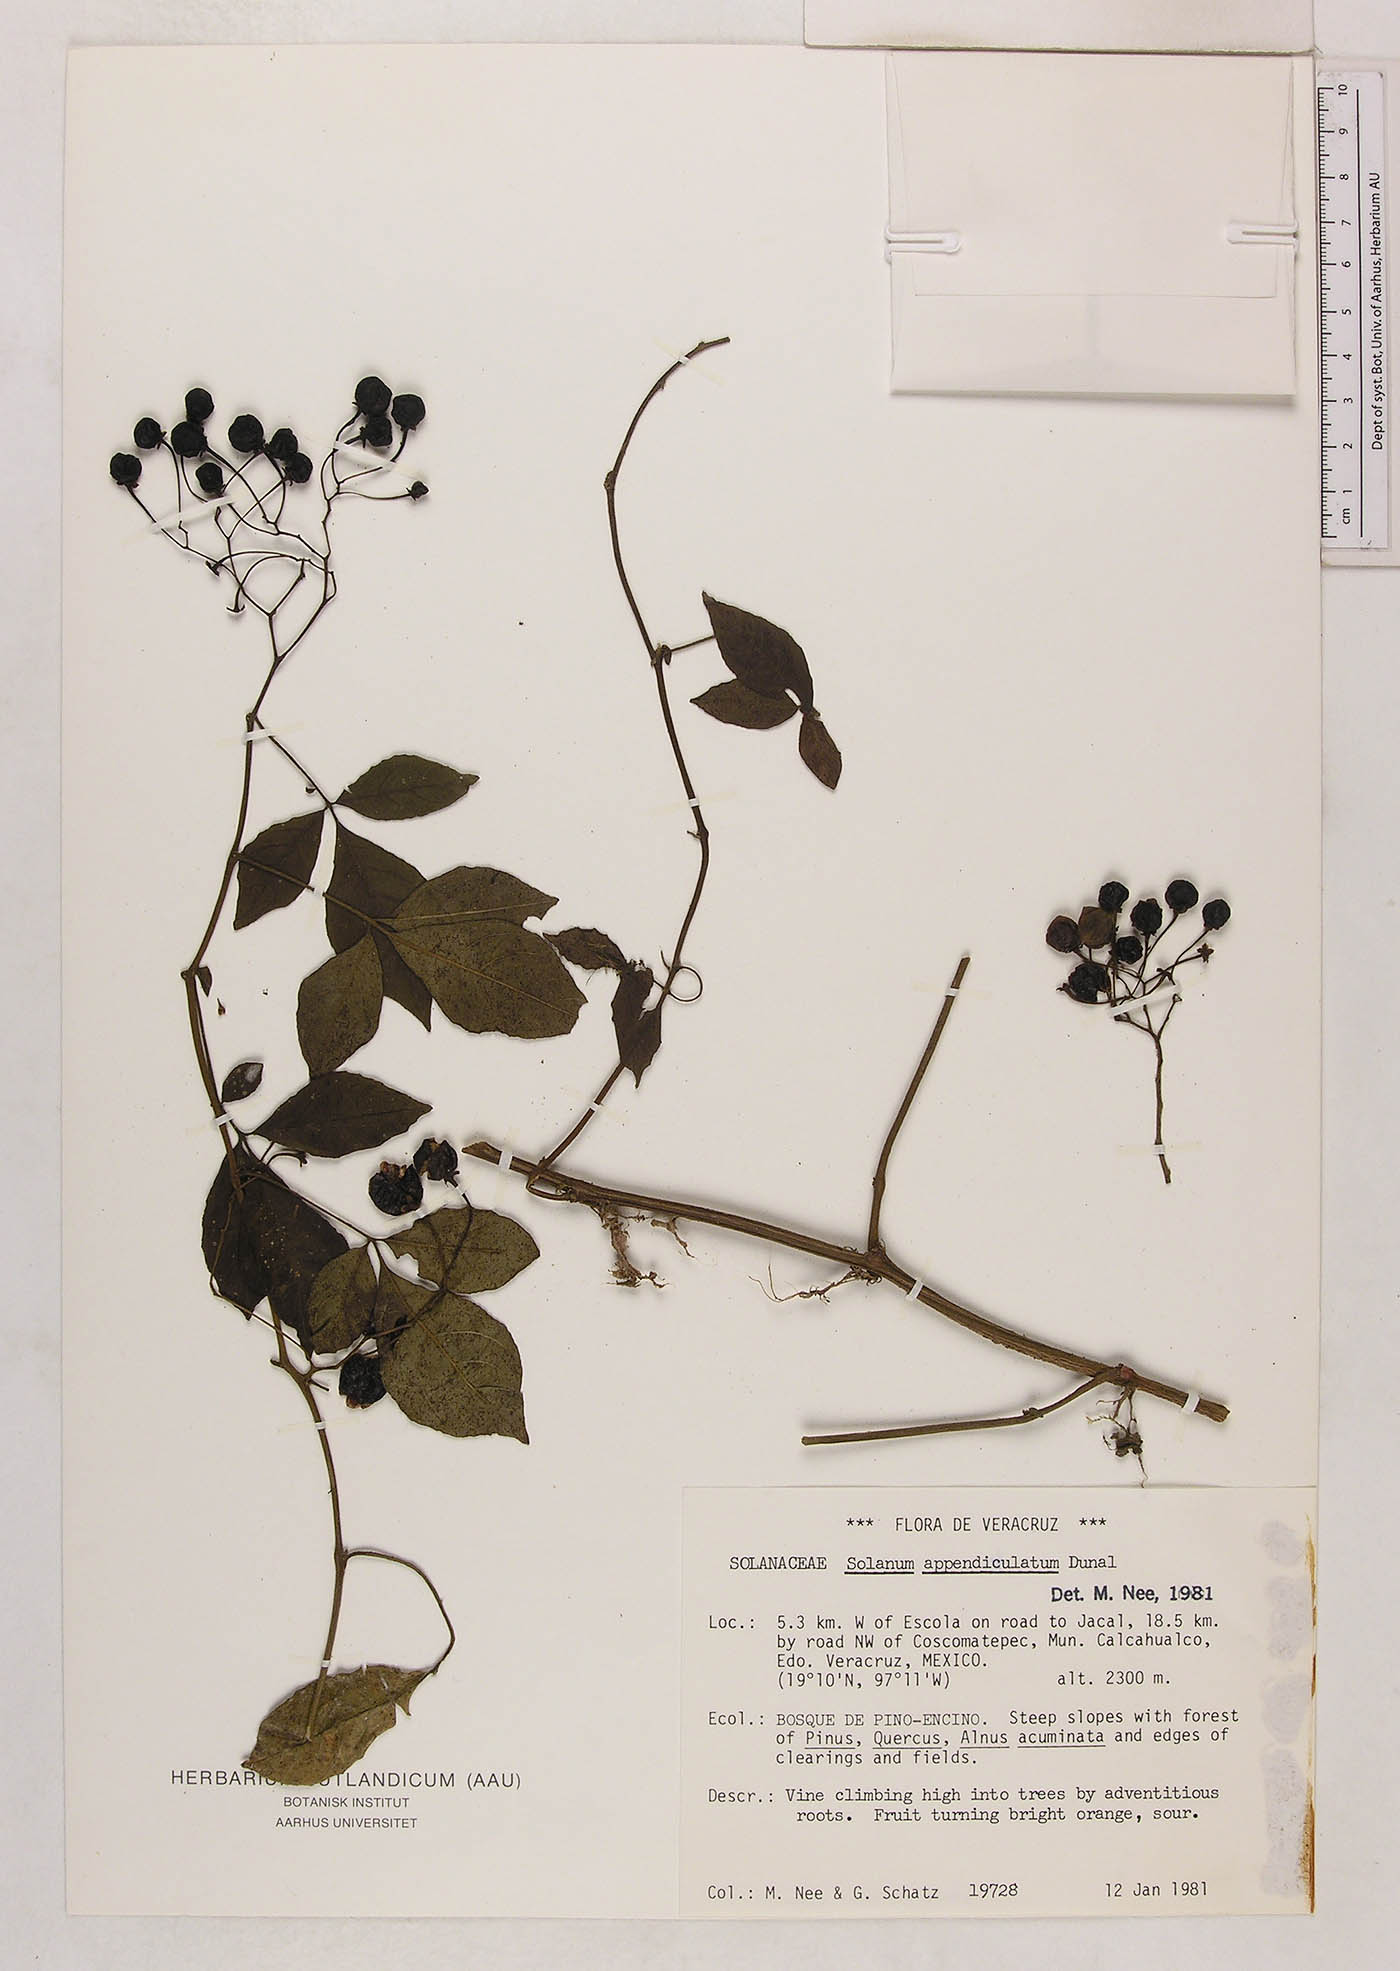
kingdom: Plantae
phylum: Tracheophyta
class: Magnoliopsida
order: Solanales
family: Solanaceae
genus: Solanum
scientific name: Solanum appendiculatum
